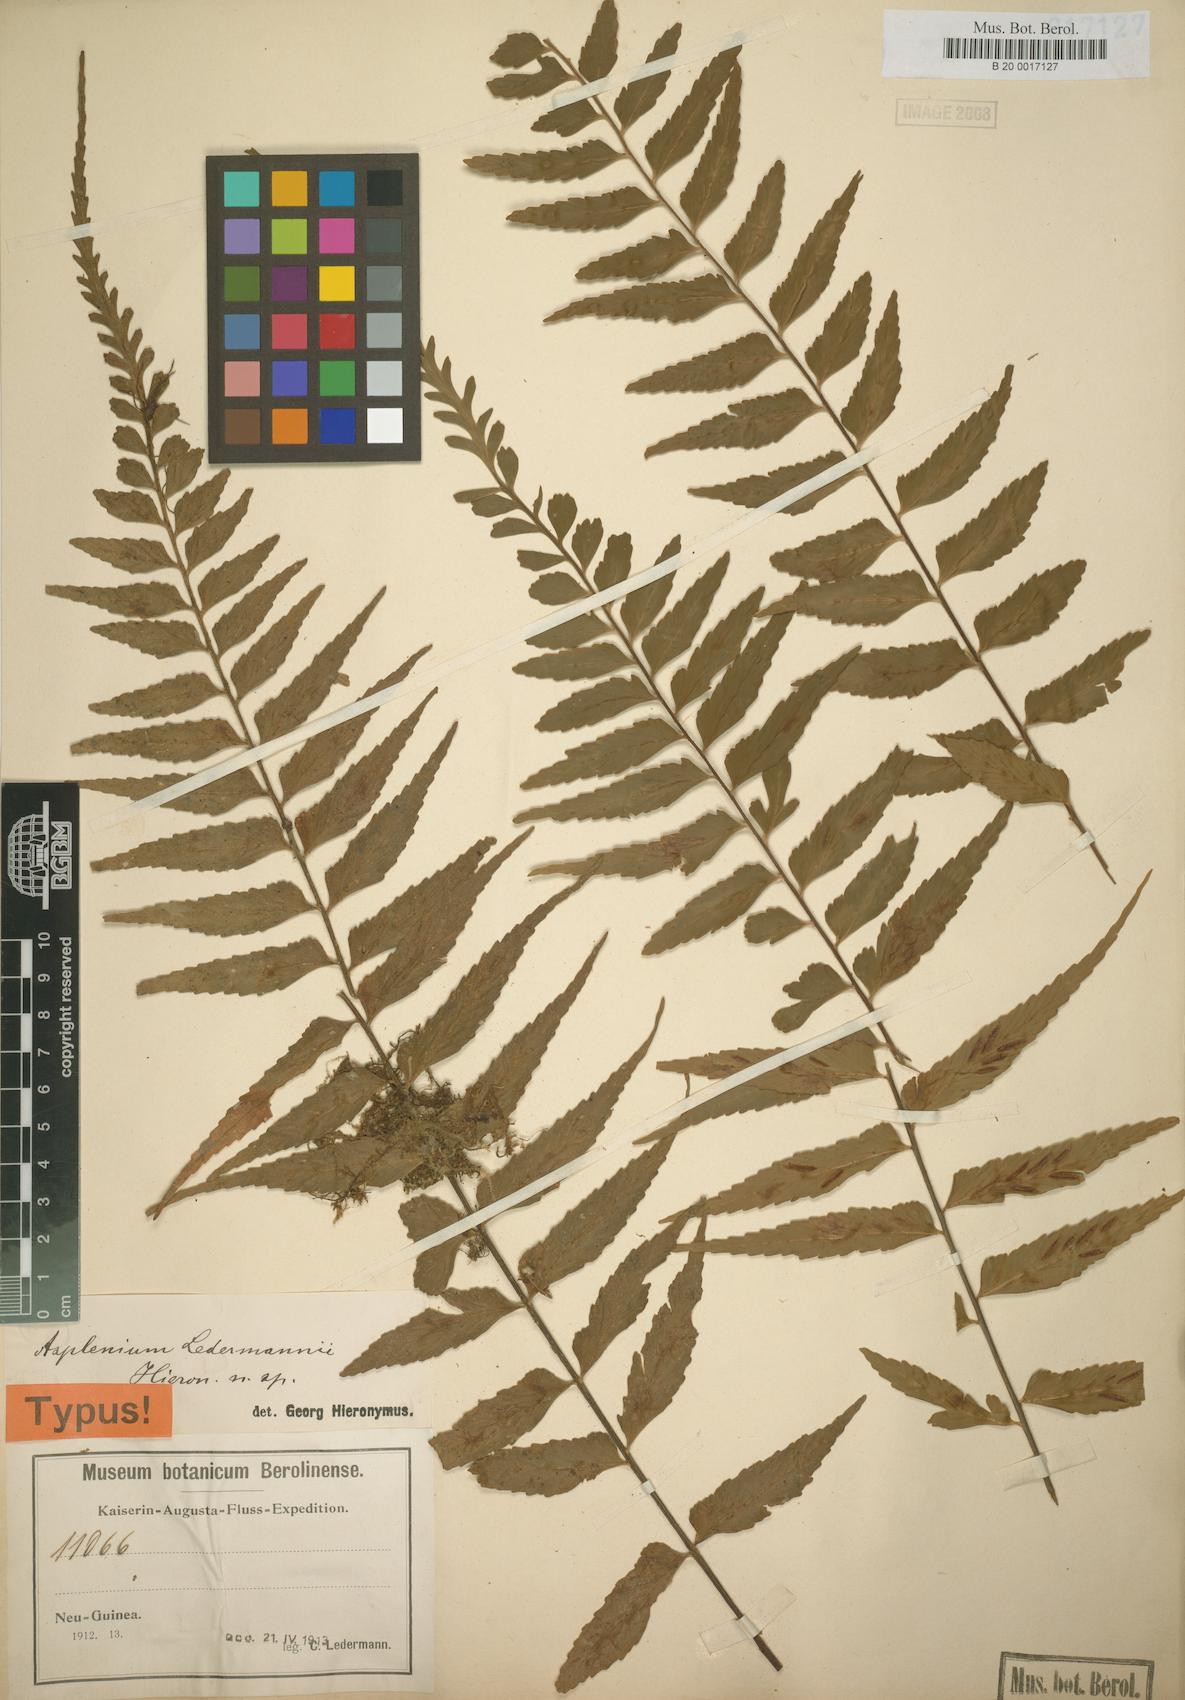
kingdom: Plantae
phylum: Tracheophyta
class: Polypodiopsida
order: Polypodiales
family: Aspleniaceae
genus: Asplenium
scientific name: Asplenium lobulatum
